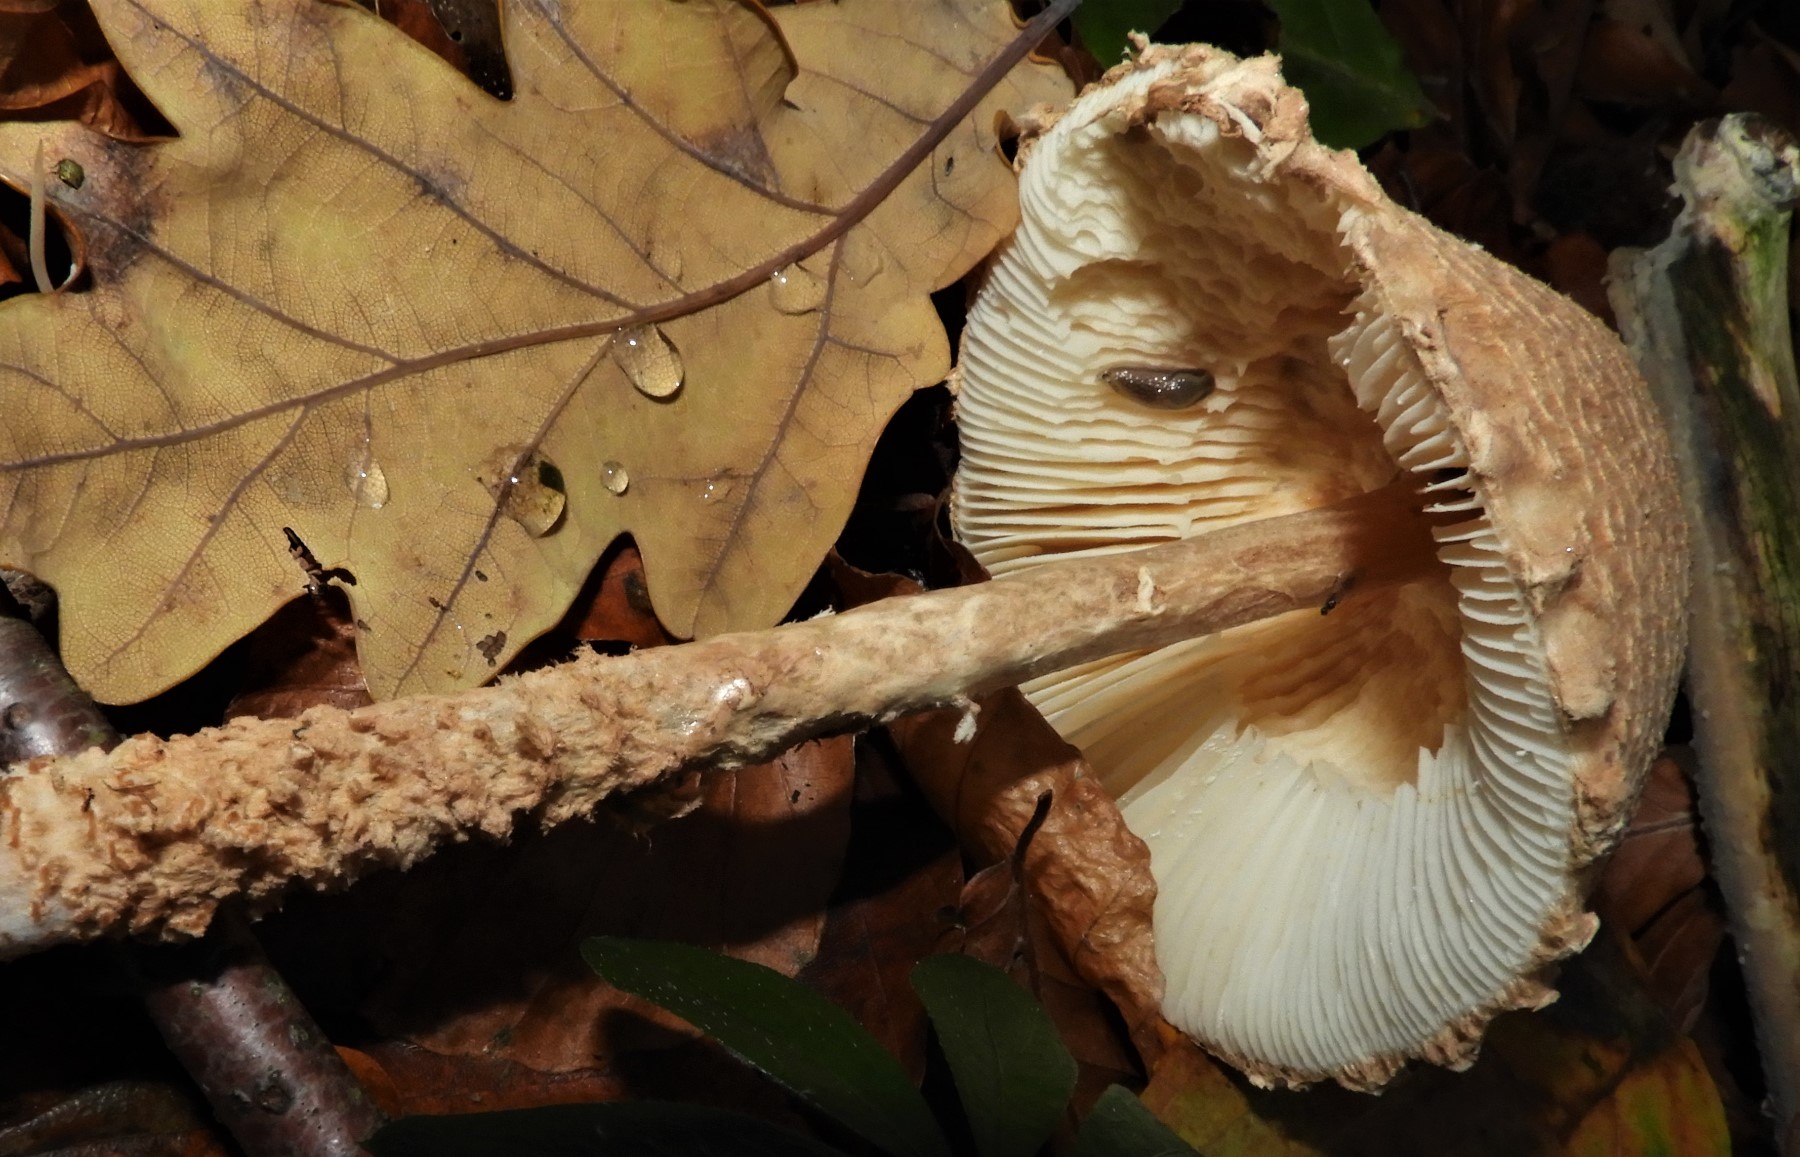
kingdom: Fungi
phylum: Basidiomycota
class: Agaricomycetes
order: Agaricales
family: Agaricaceae
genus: Lepiota
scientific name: Lepiota magnispora
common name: gulfnugget parasolhat
